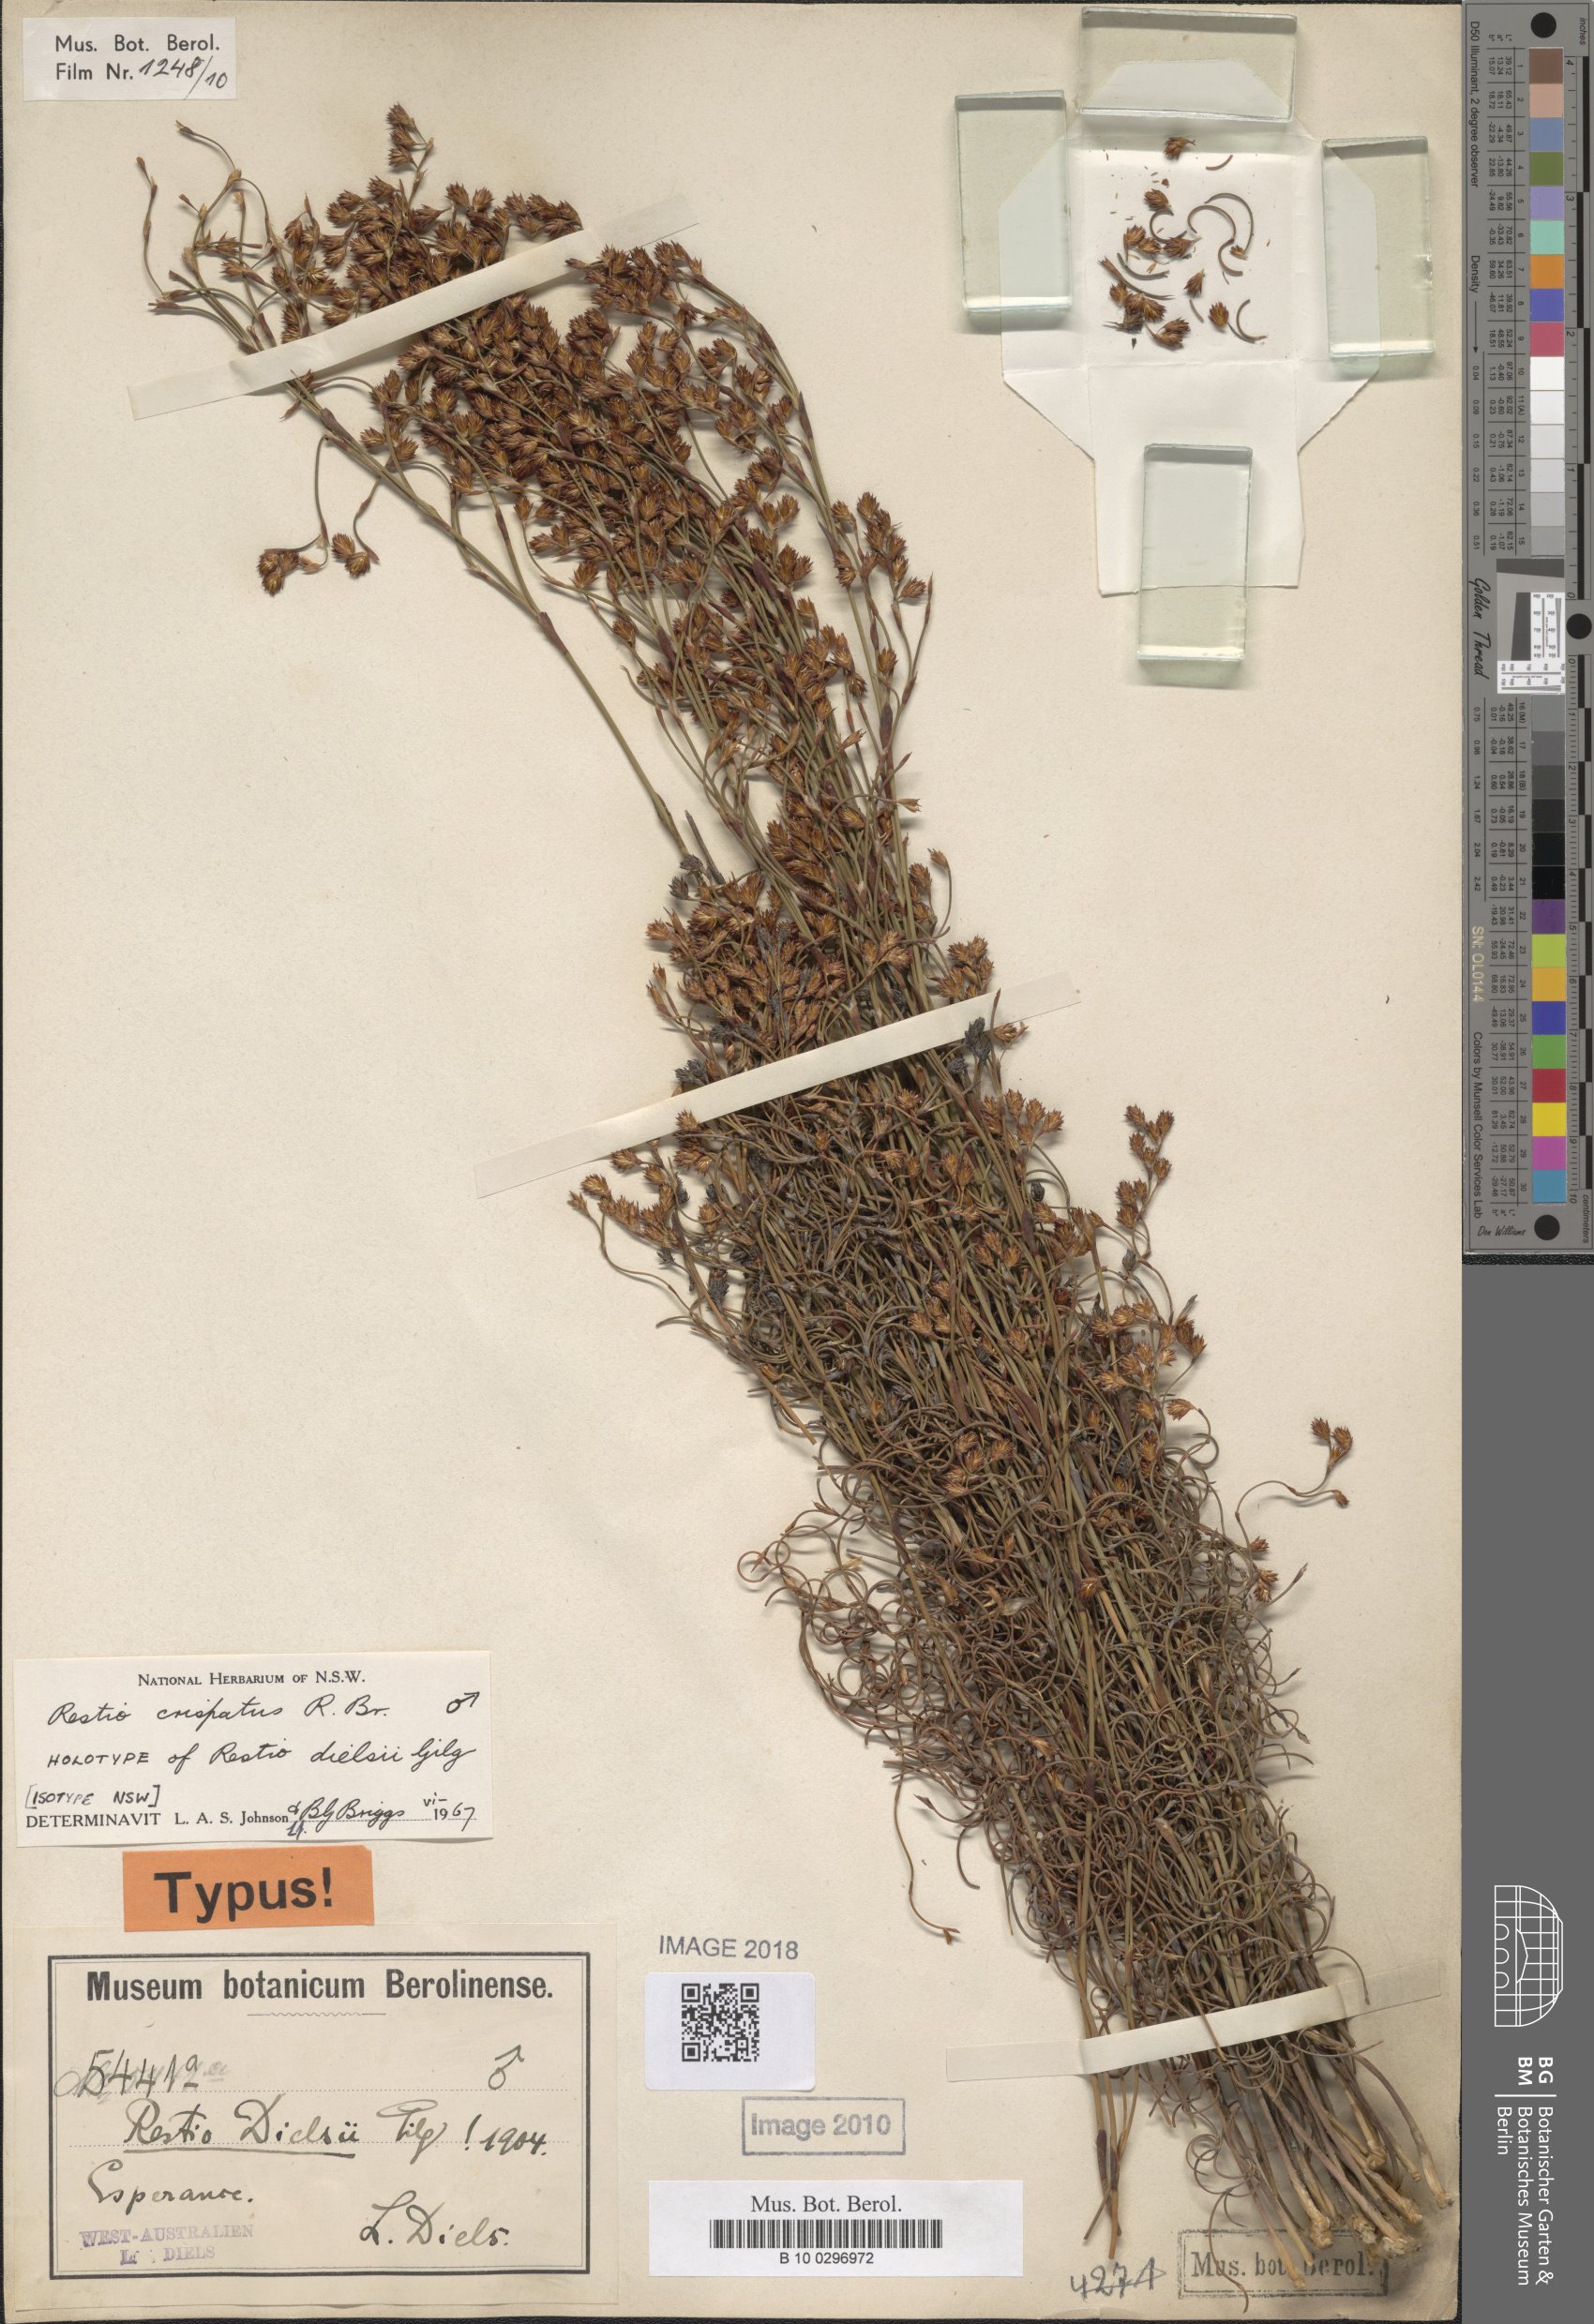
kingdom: Plantae
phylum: Tracheophyta
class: Liliopsida
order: Poales
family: Restionaceae
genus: Chordifex
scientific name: Chordifex crispatus
